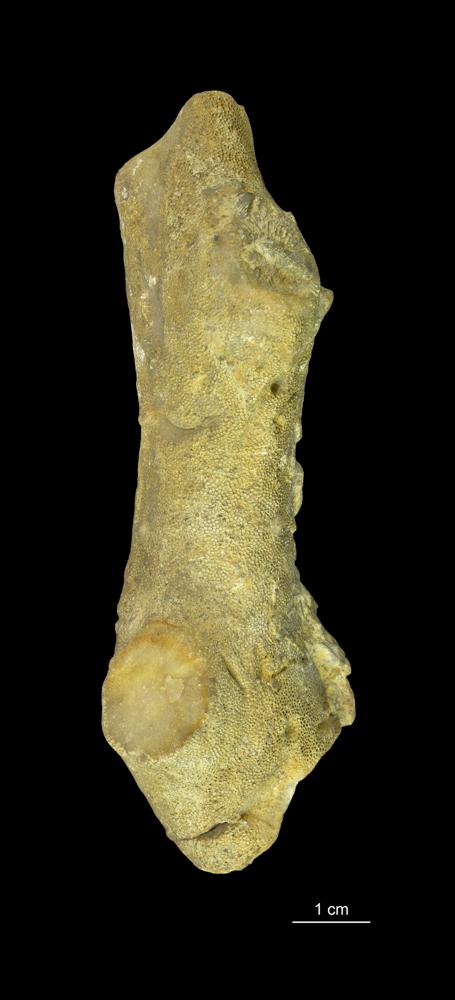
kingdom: Animalia
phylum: Bryozoa
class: Stenolaemata
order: Trepostomatida
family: Trematoporidae
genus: Batostoma
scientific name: Batostoma mickwitzi
